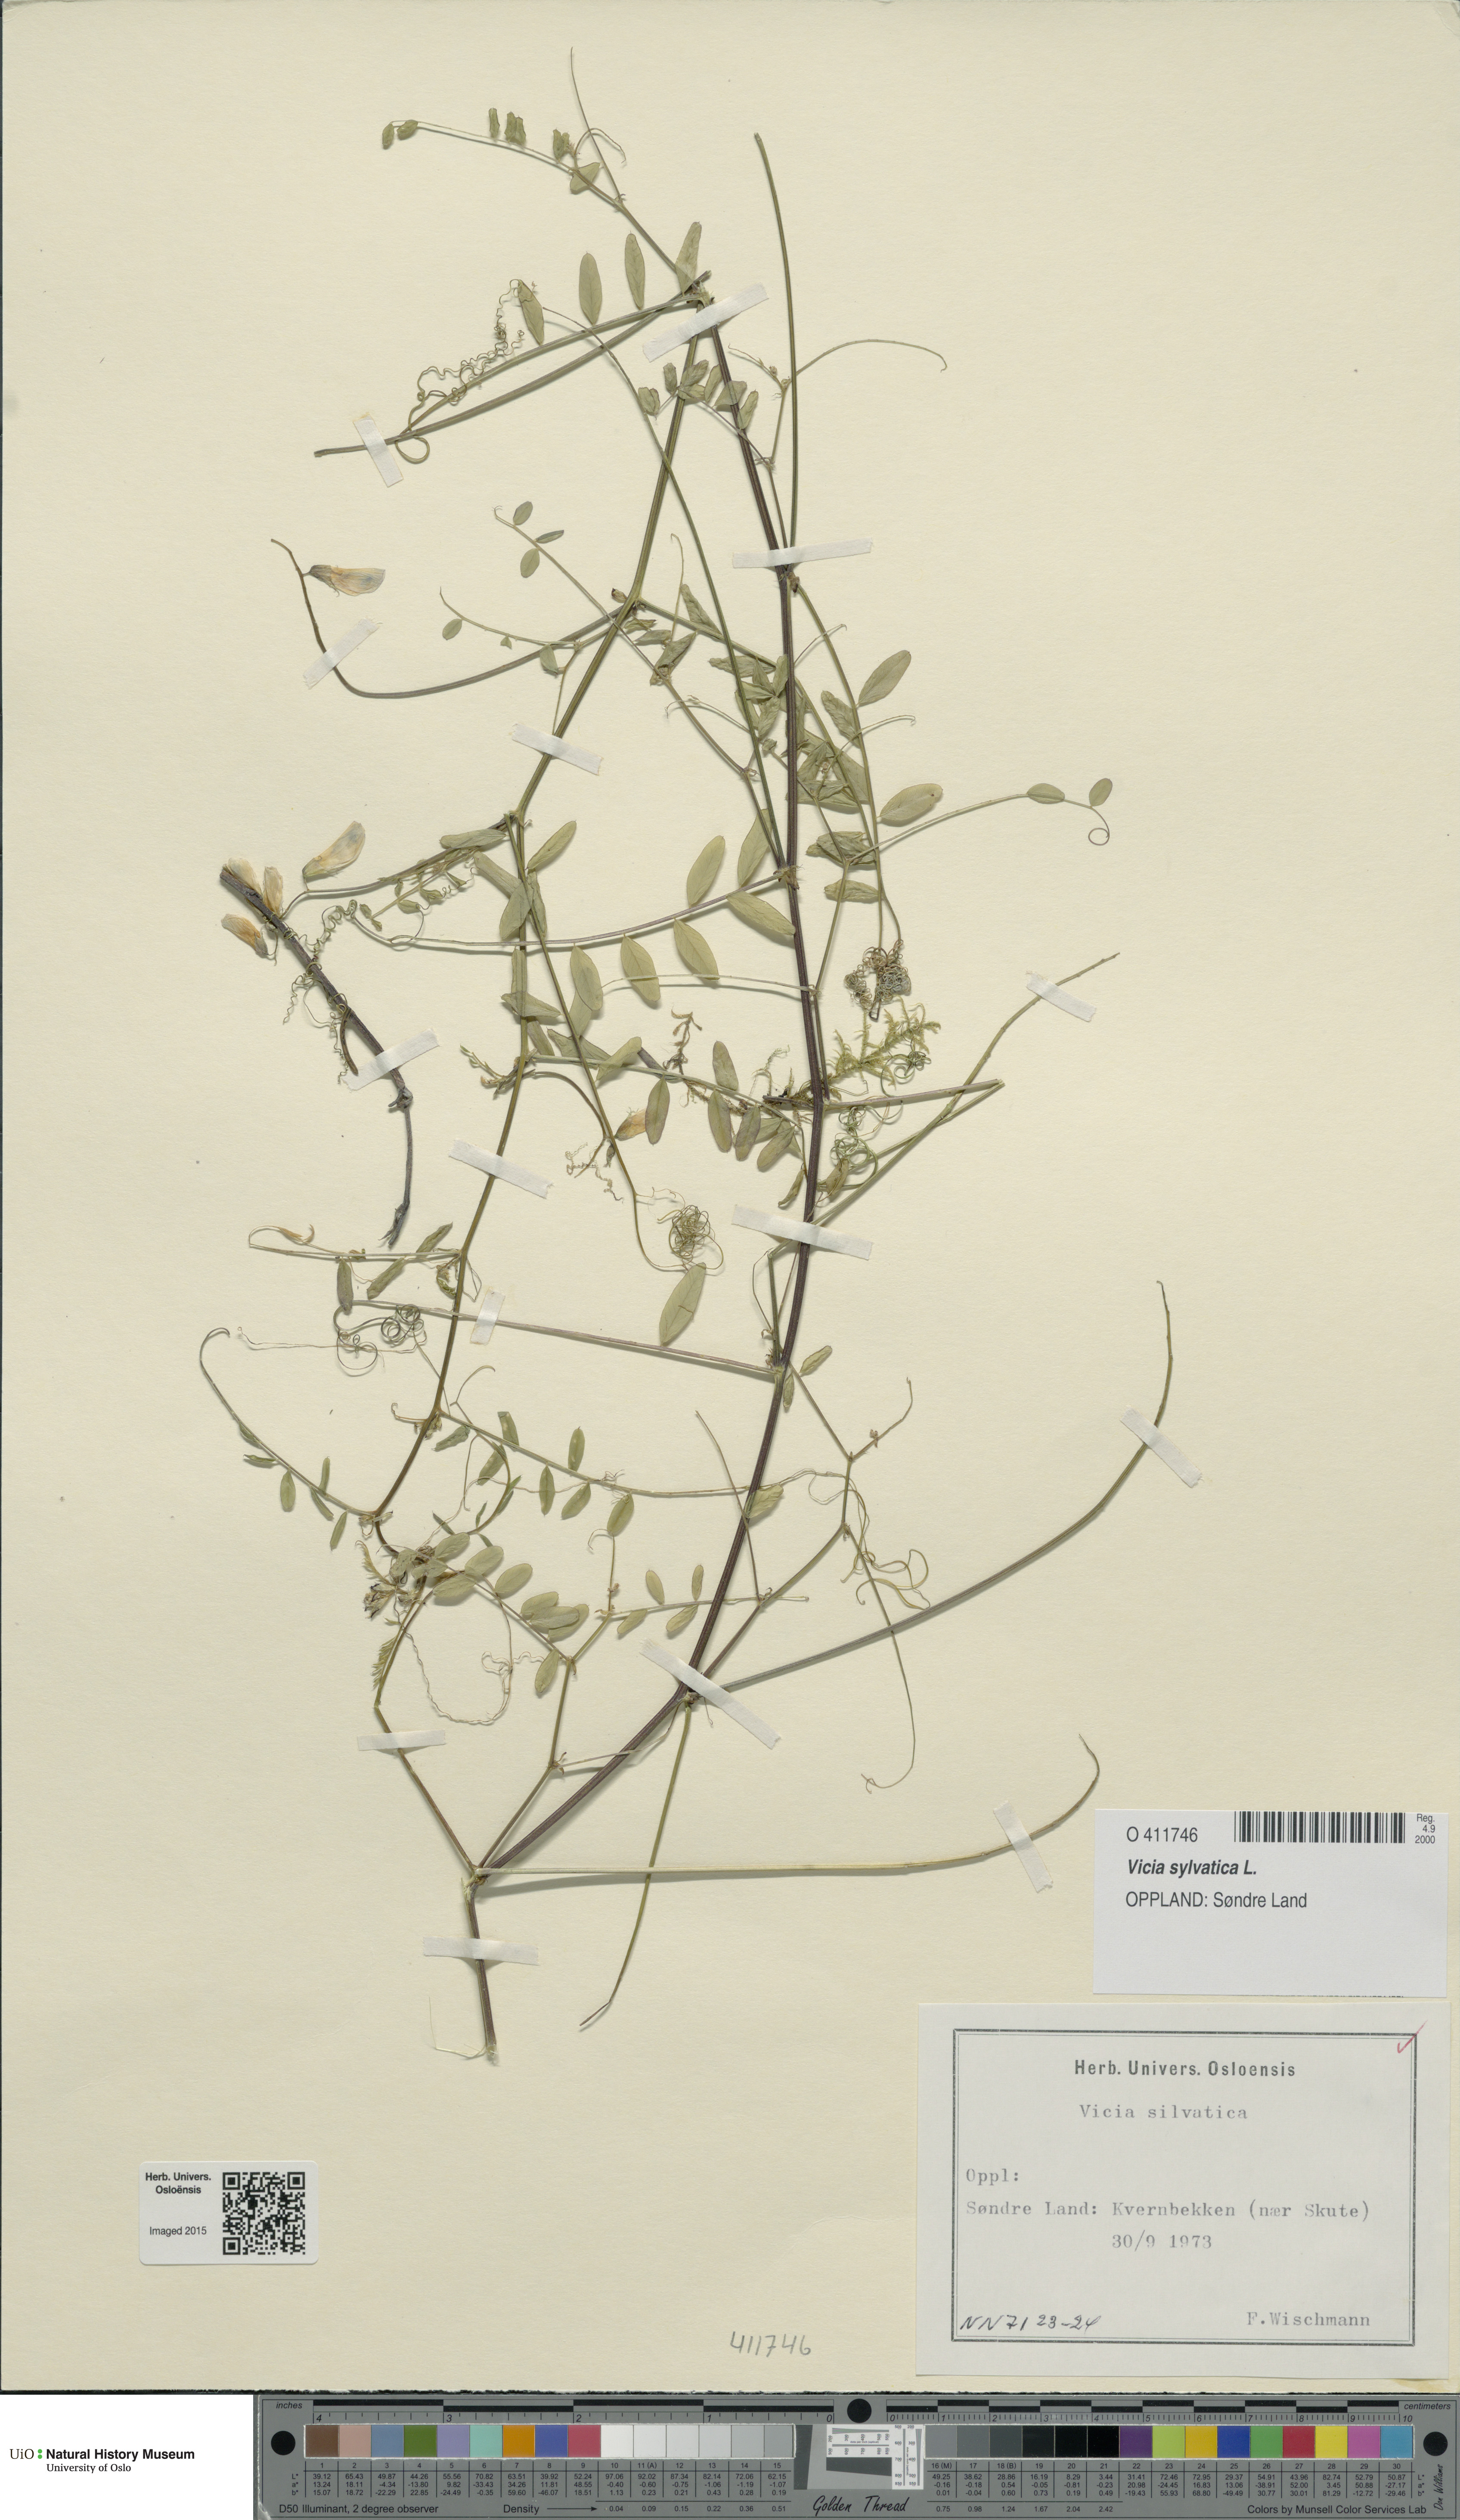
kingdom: Plantae
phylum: Tracheophyta
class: Magnoliopsida
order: Fabales
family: Fabaceae
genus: Vicia
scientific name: Vicia sylvatica
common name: Wood vetch
